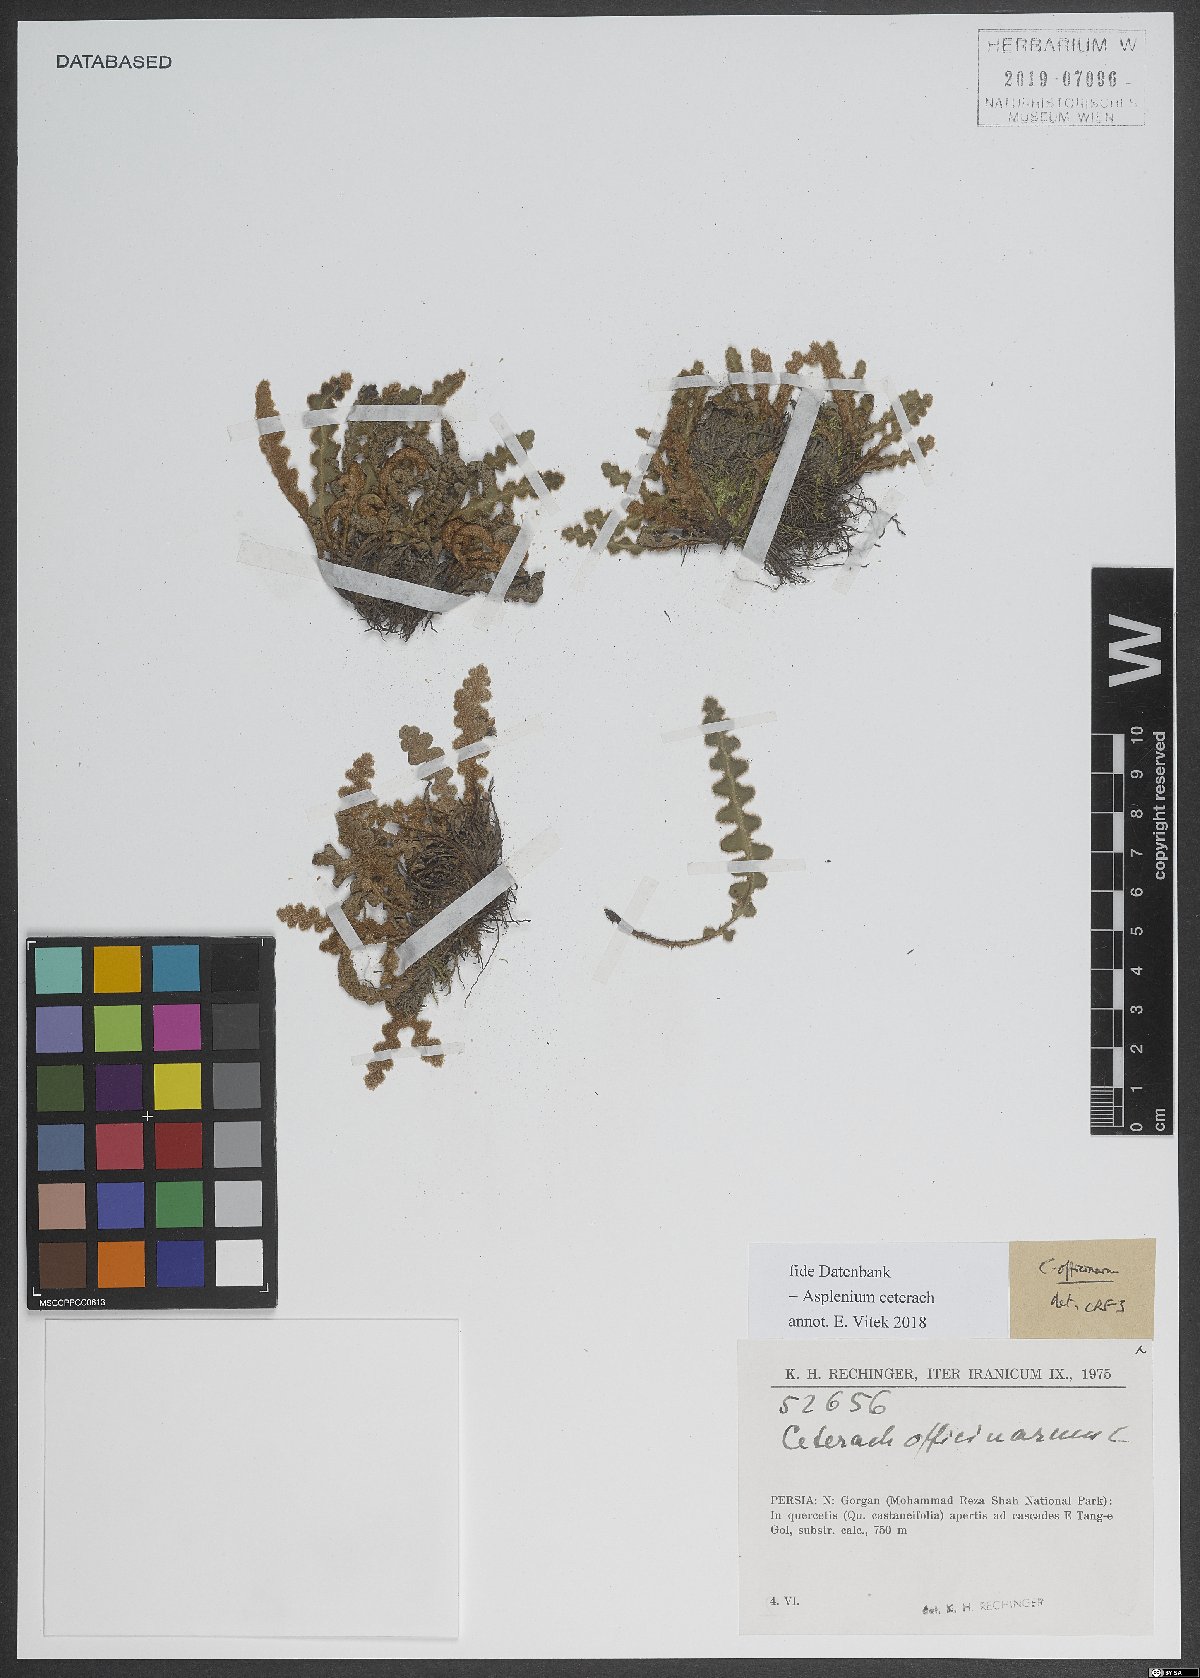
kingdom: Plantae
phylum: Tracheophyta
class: Polypodiopsida
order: Polypodiales
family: Aspleniaceae
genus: Asplenium
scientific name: Asplenium ceterach
